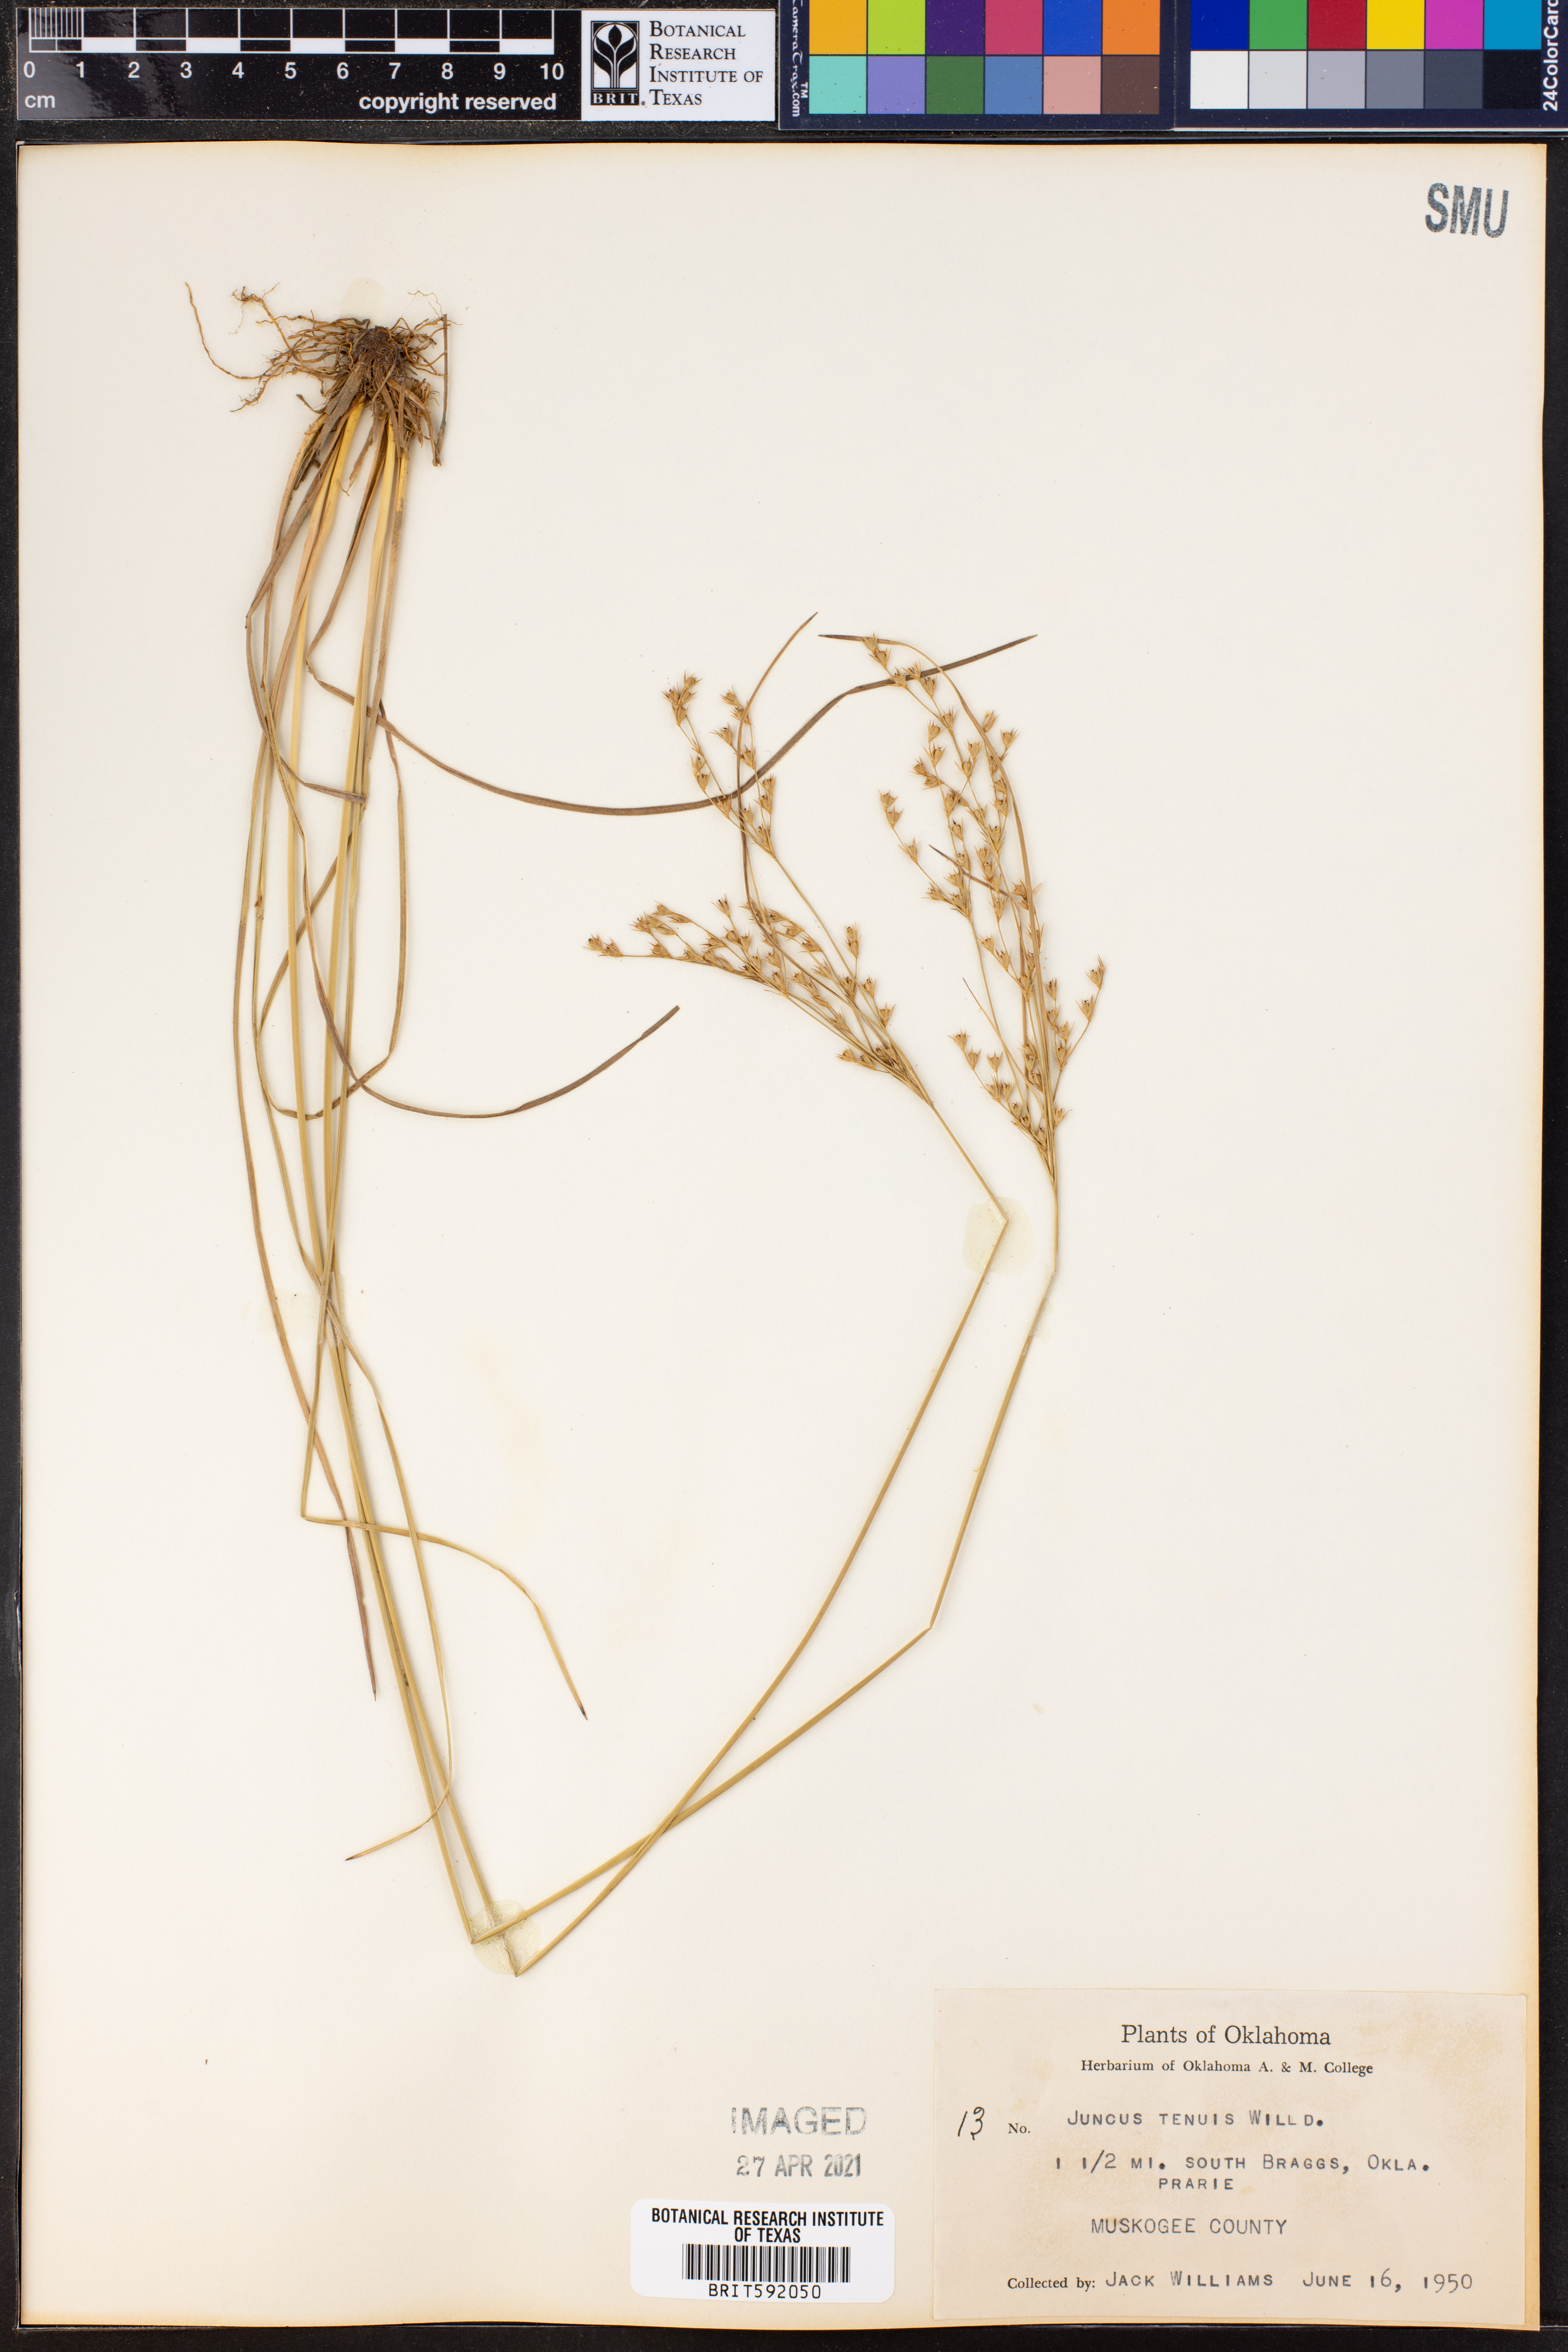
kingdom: Plantae
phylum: Tracheophyta
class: Liliopsida
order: Poales
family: Juncaceae
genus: Juncus
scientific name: Juncus tenuis
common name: Slender rush
